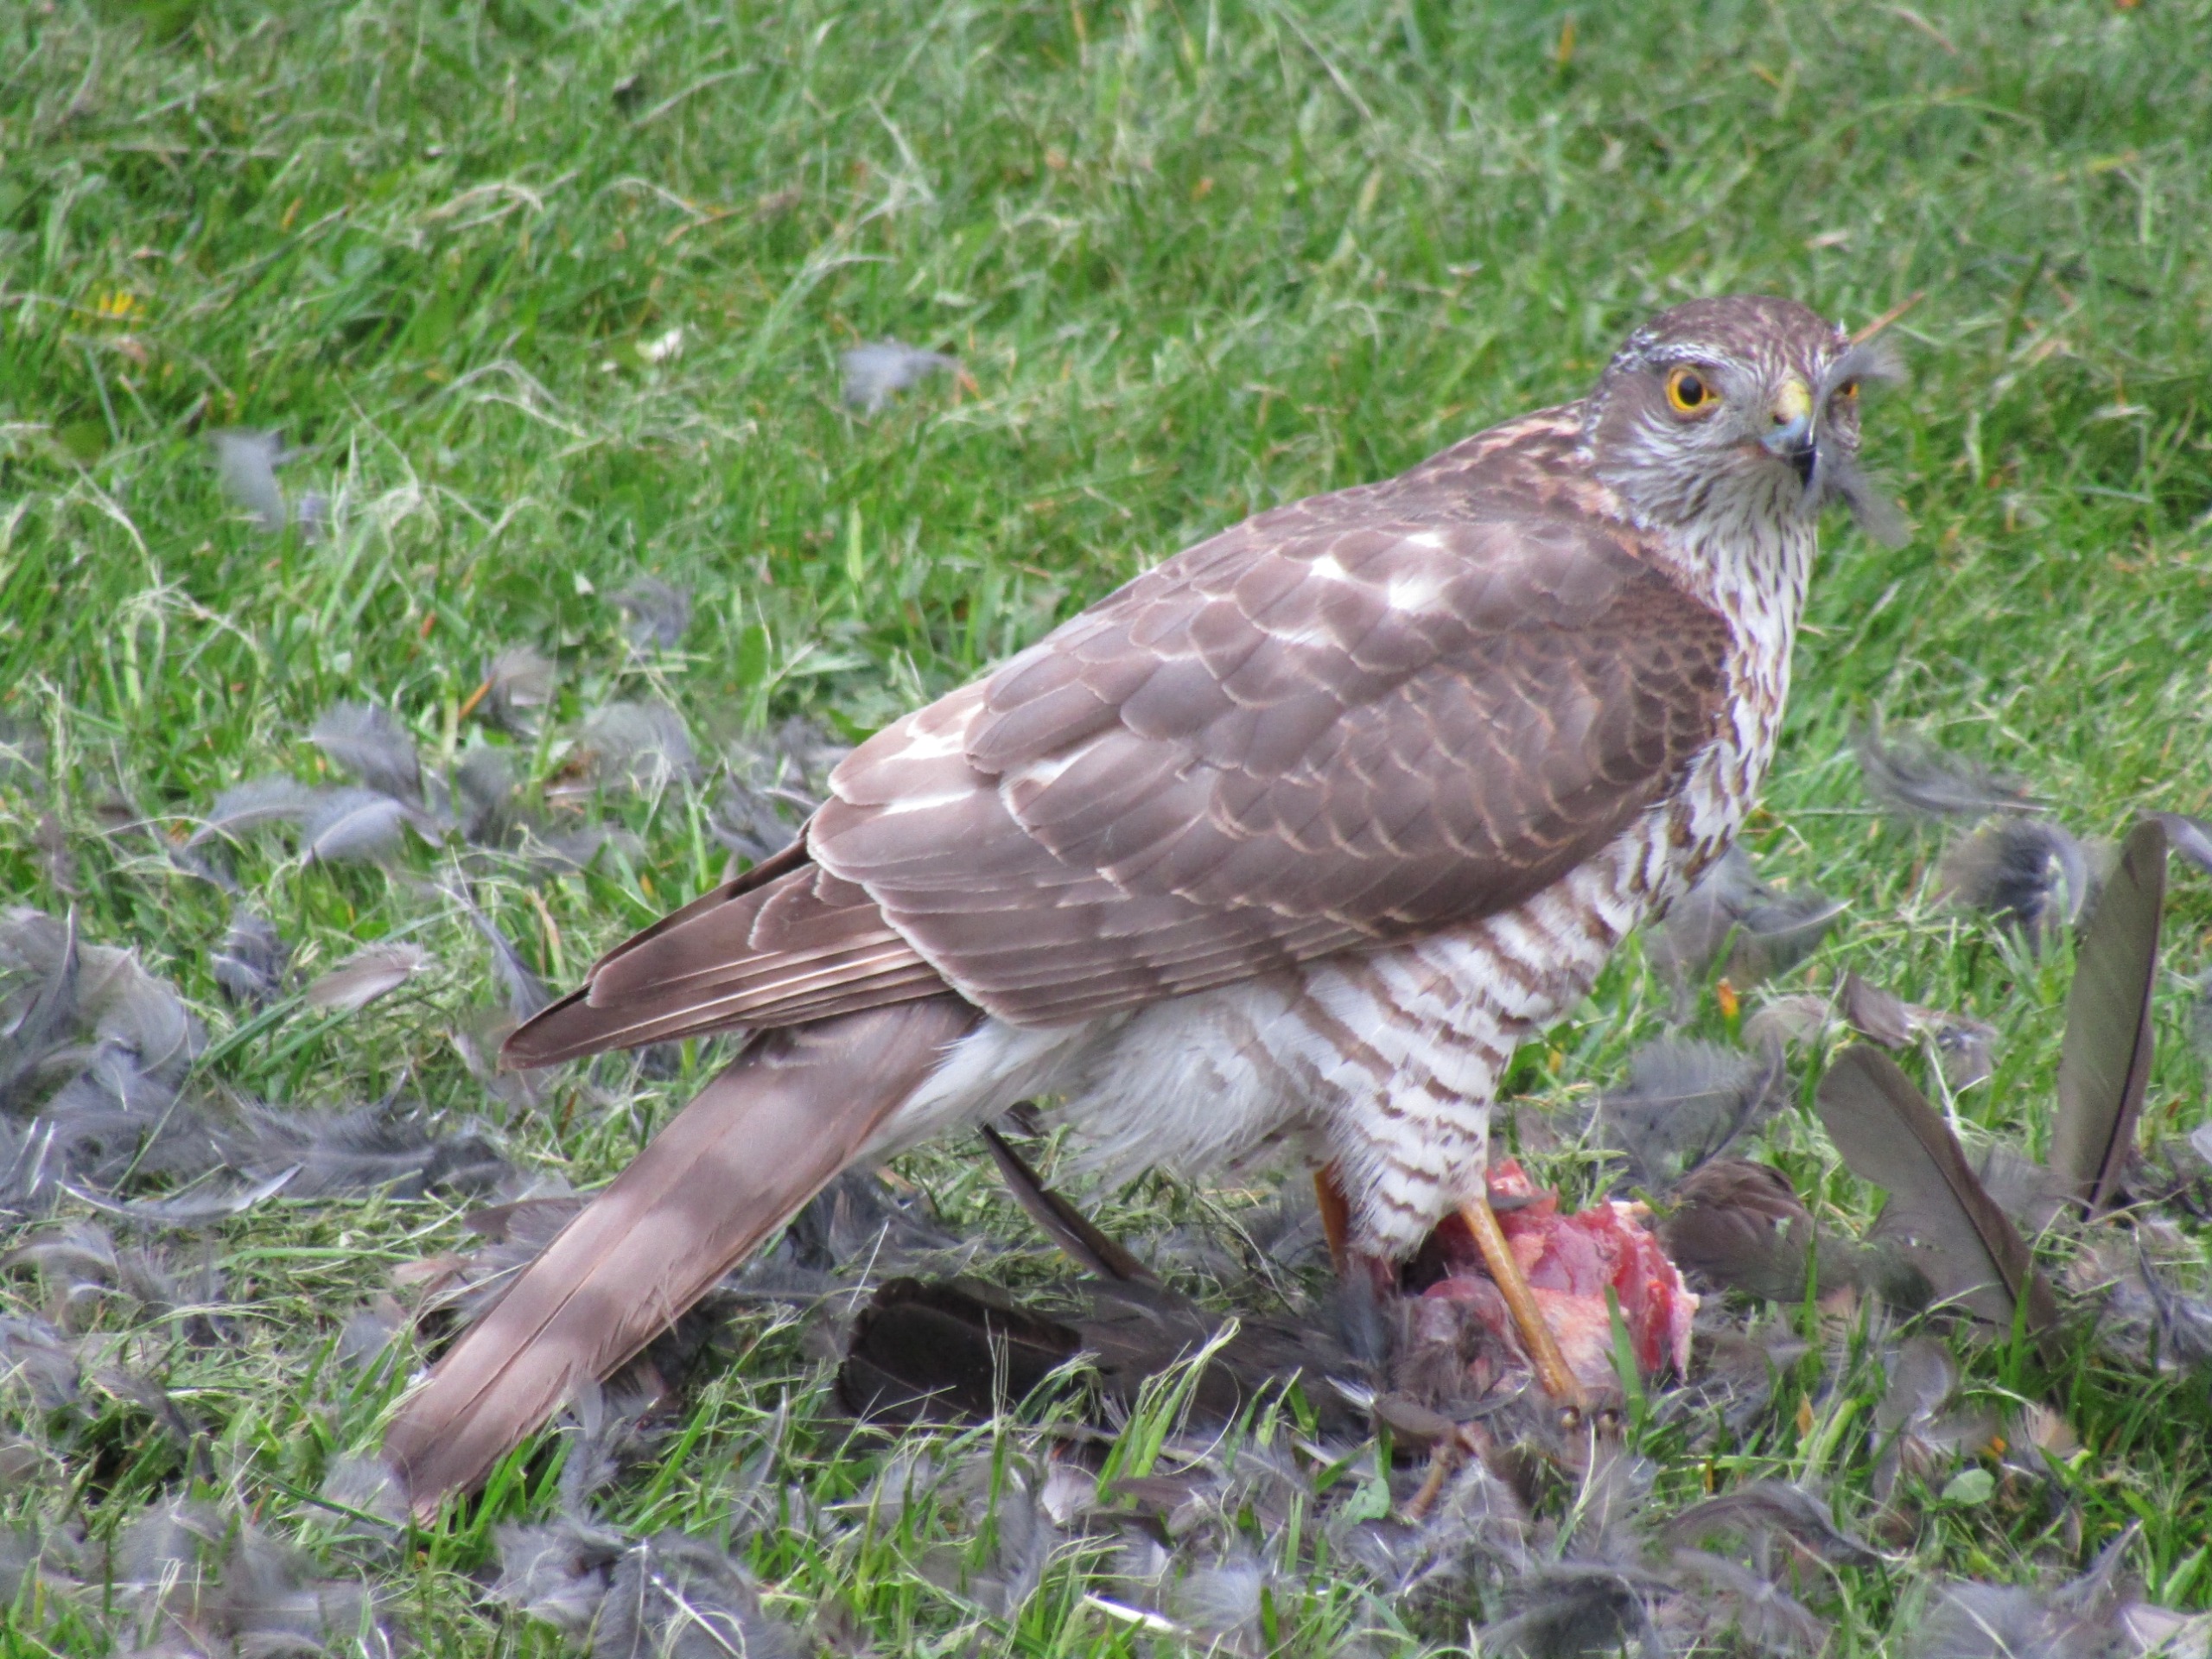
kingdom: Animalia
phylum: Chordata
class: Aves
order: Accipitriformes
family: Accipitridae
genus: Accipiter
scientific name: Accipiter nisus
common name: Spurvehøg
